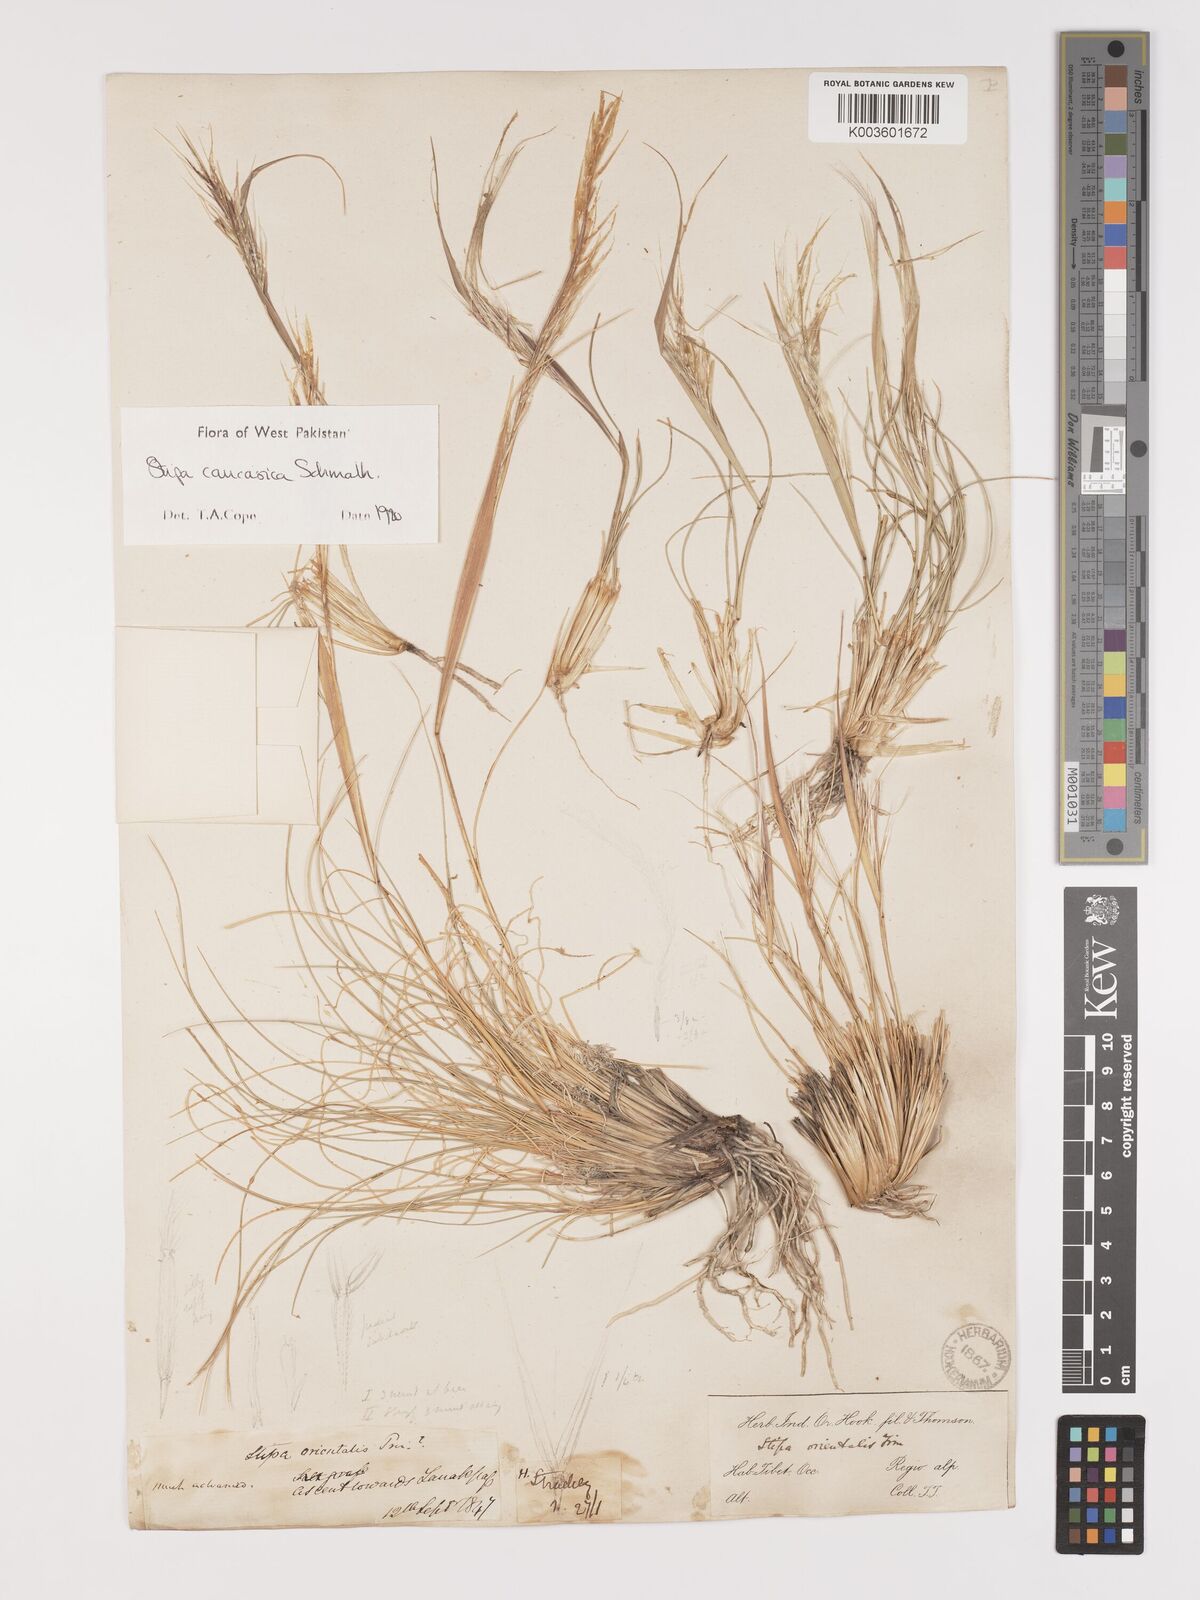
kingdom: Plantae
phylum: Tracheophyta
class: Liliopsida
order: Poales
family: Poaceae
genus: Stipa
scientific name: Stipa caucasica
